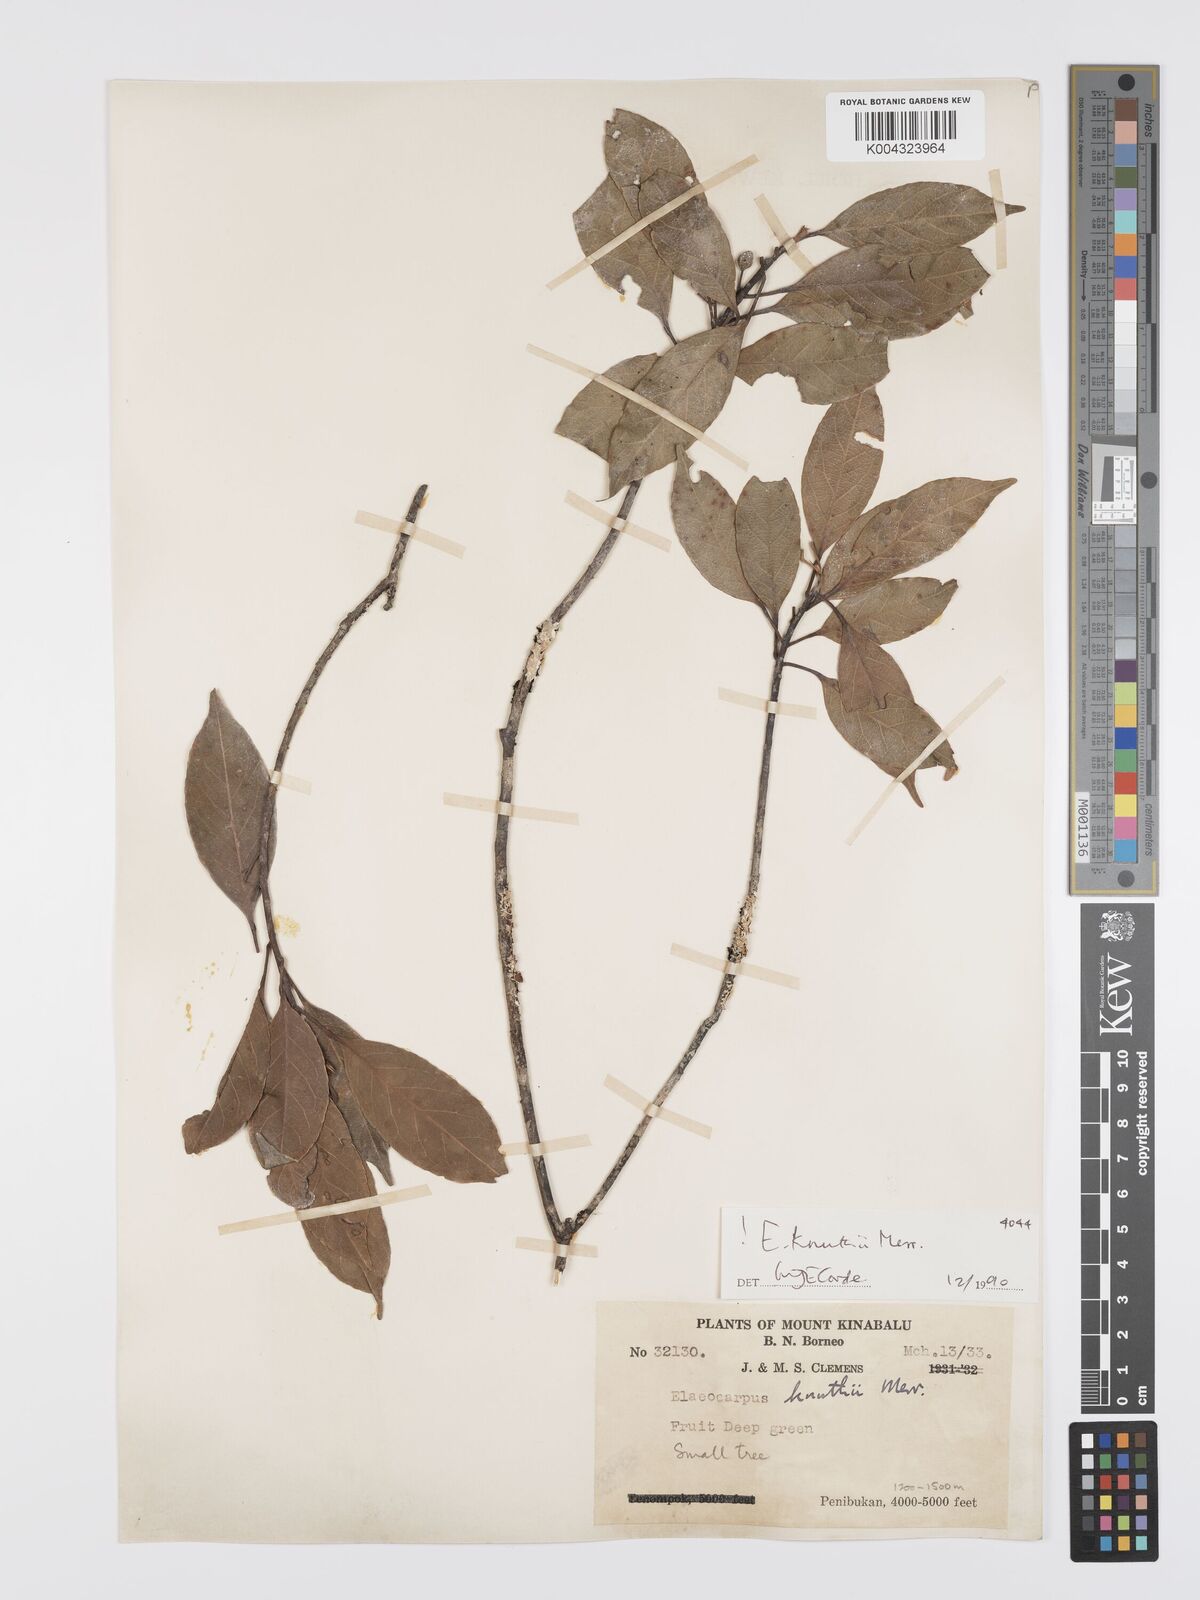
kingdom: Plantae
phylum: Tracheophyta
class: Magnoliopsida
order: Oxalidales
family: Elaeocarpaceae
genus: Elaeocarpus
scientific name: Elaeocarpus knuthii
